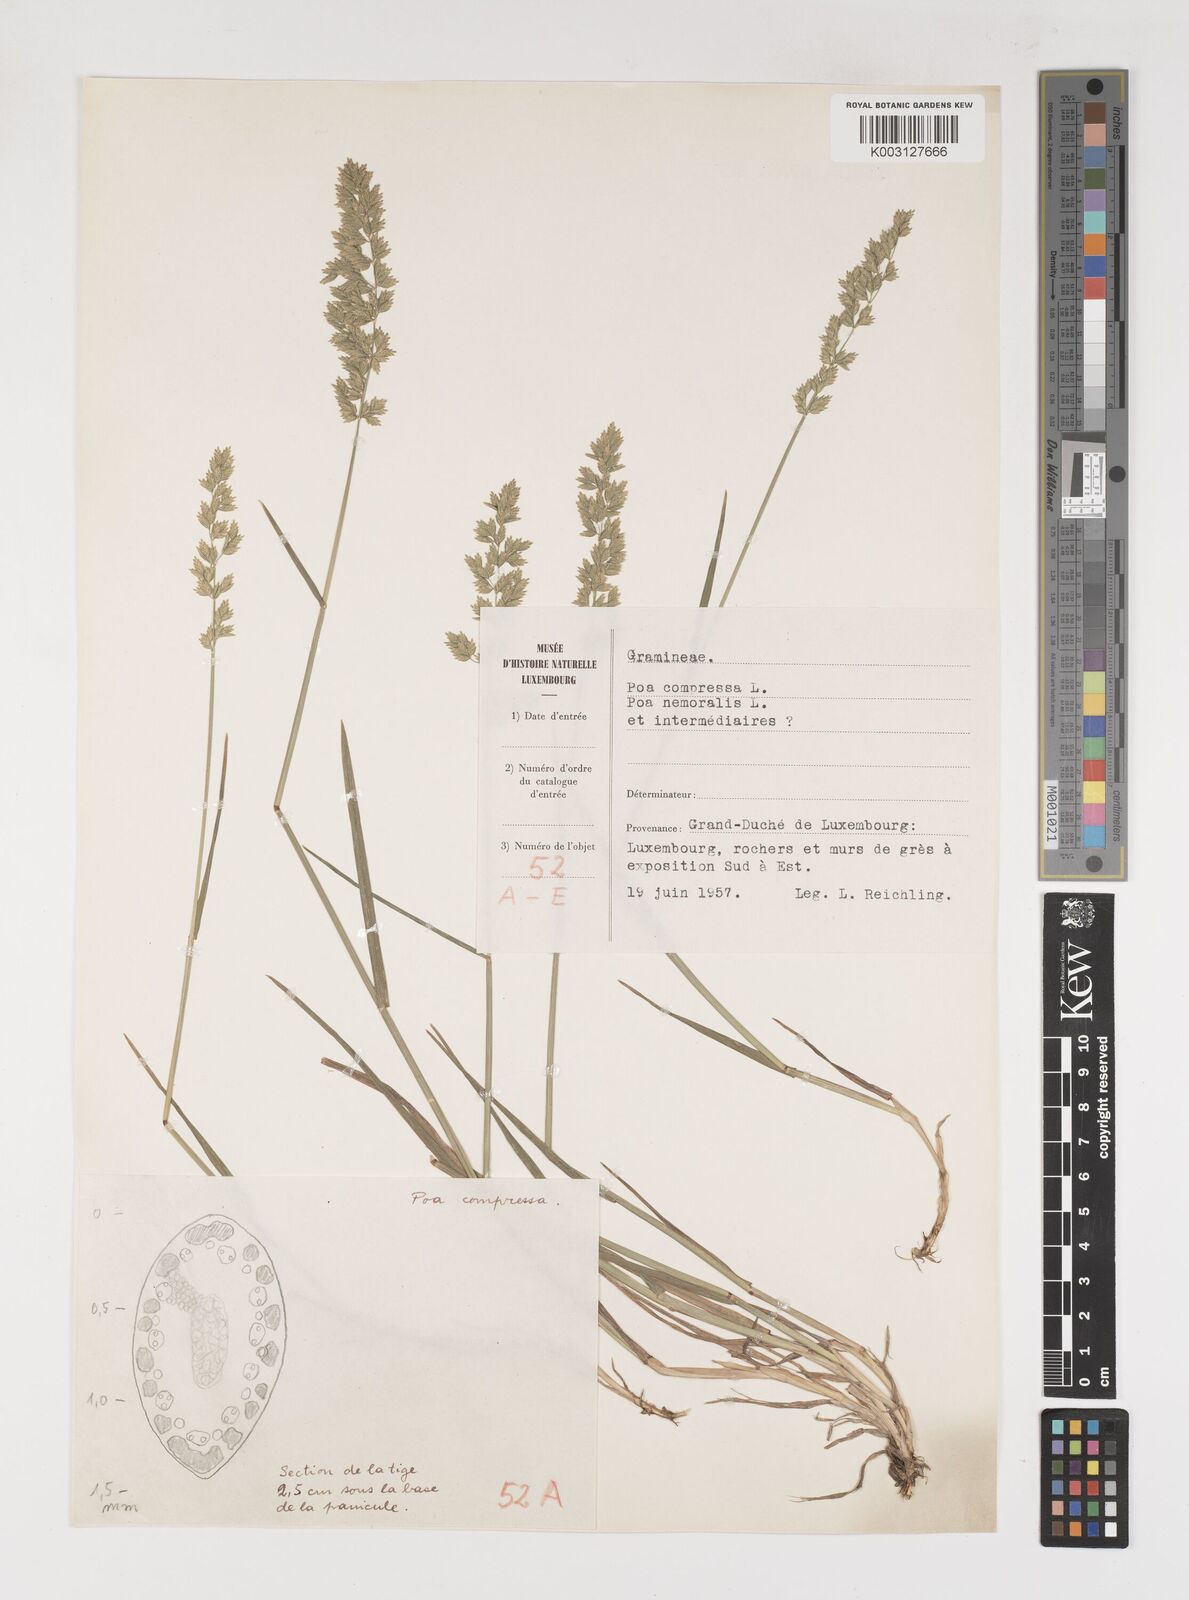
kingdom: Plantae
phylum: Tracheophyta
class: Liliopsida
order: Poales
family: Poaceae
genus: Poa
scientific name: Poa
